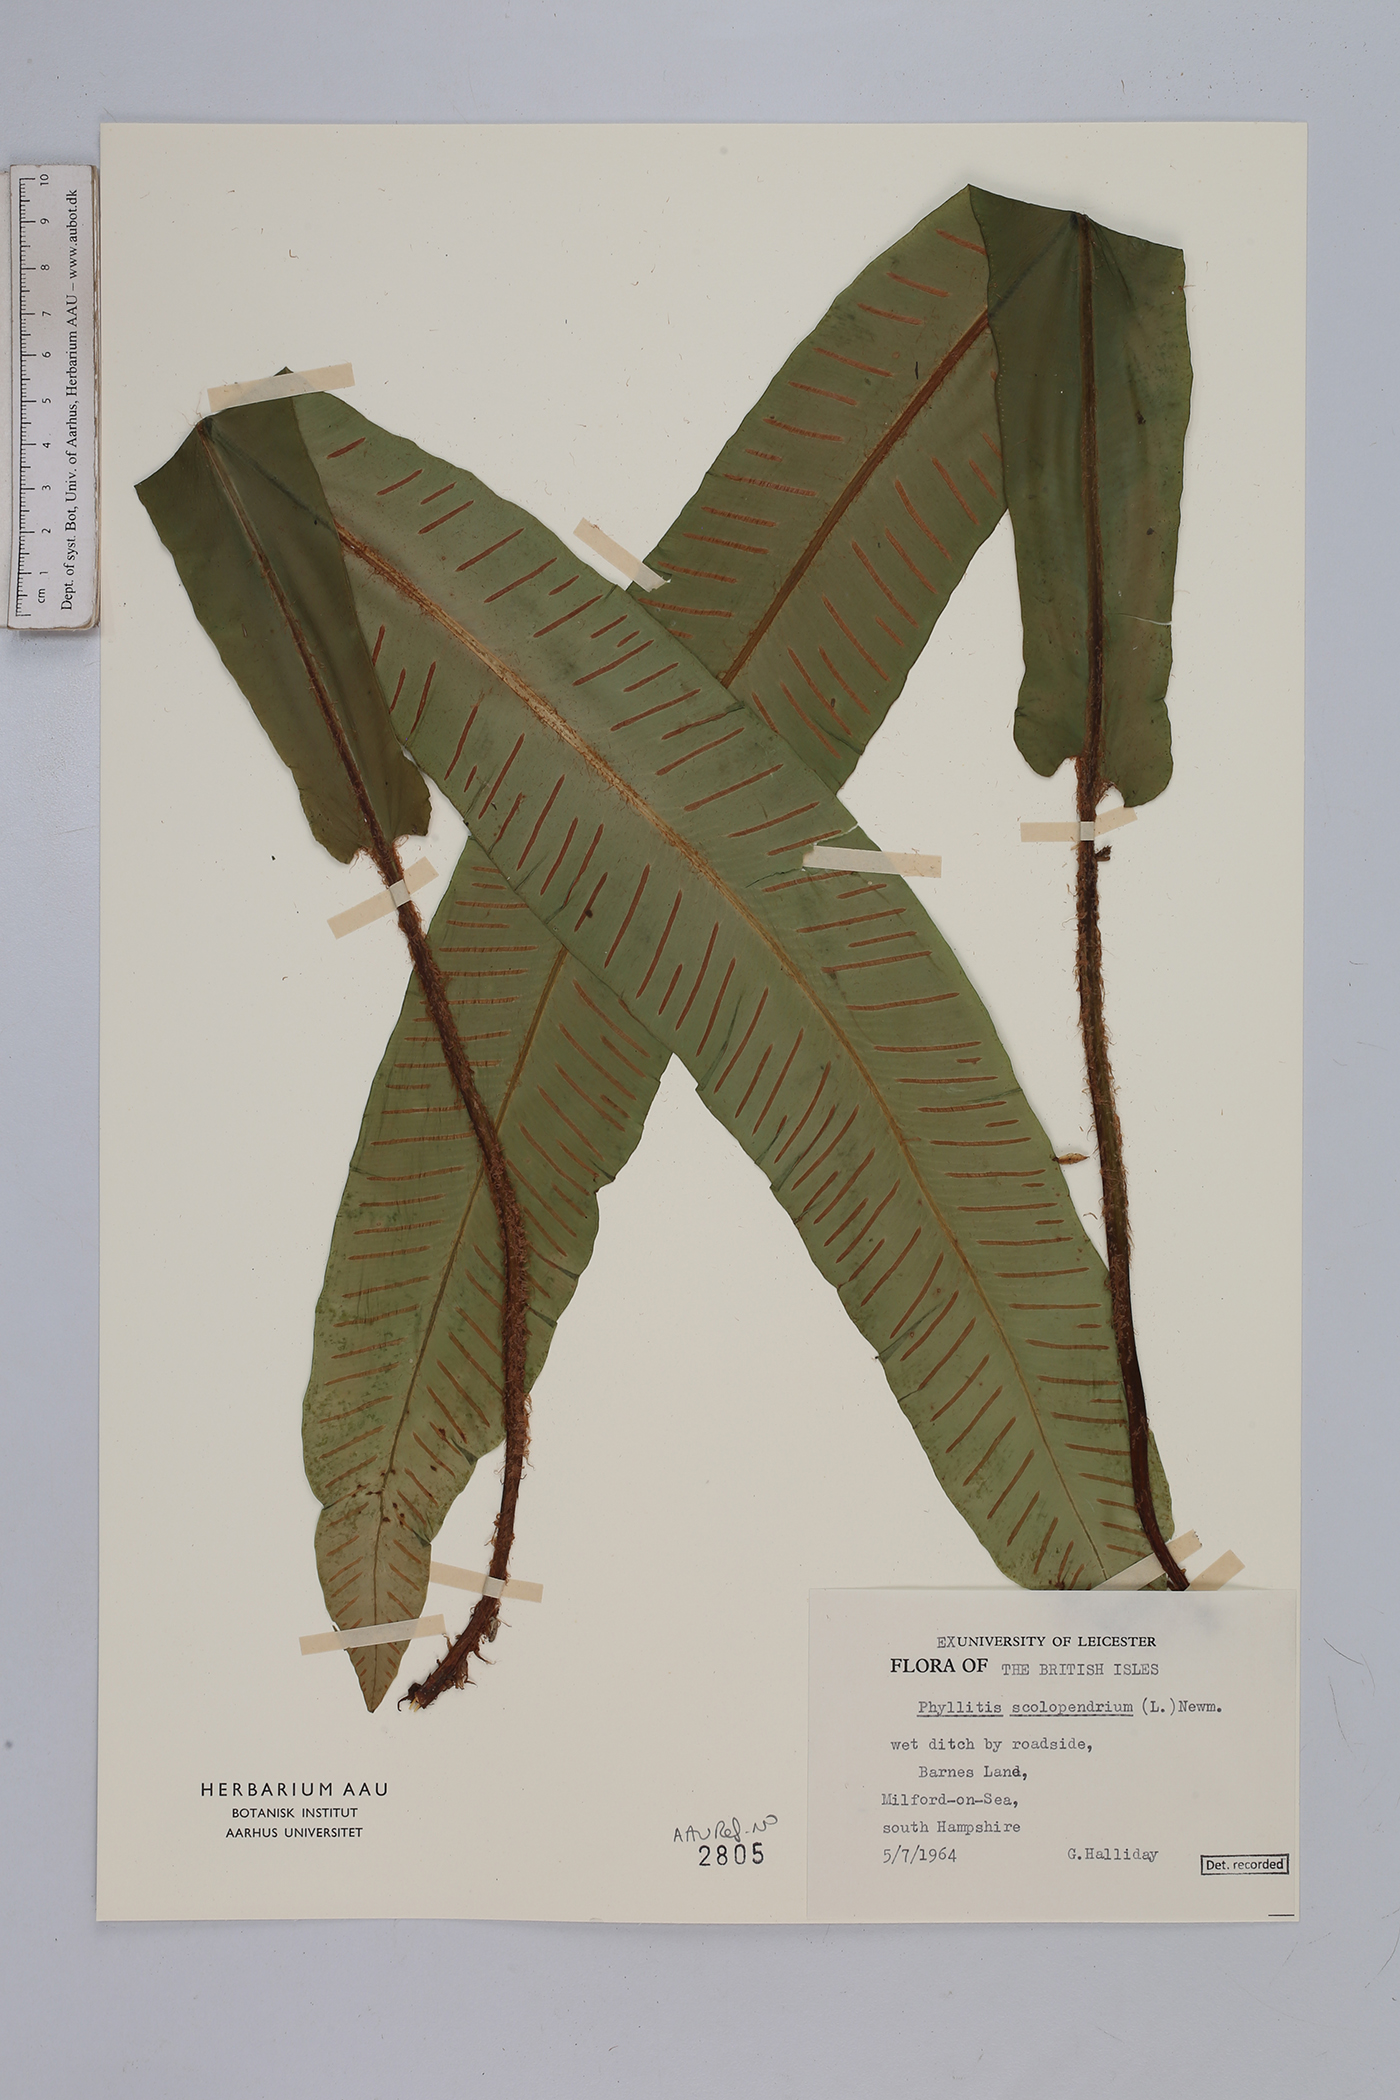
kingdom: Plantae
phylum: Tracheophyta
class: Polypodiopsida
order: Polypodiales
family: Aspleniaceae
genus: Asplenium
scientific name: Asplenium scolopendrium
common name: Hart's-tongue fern
